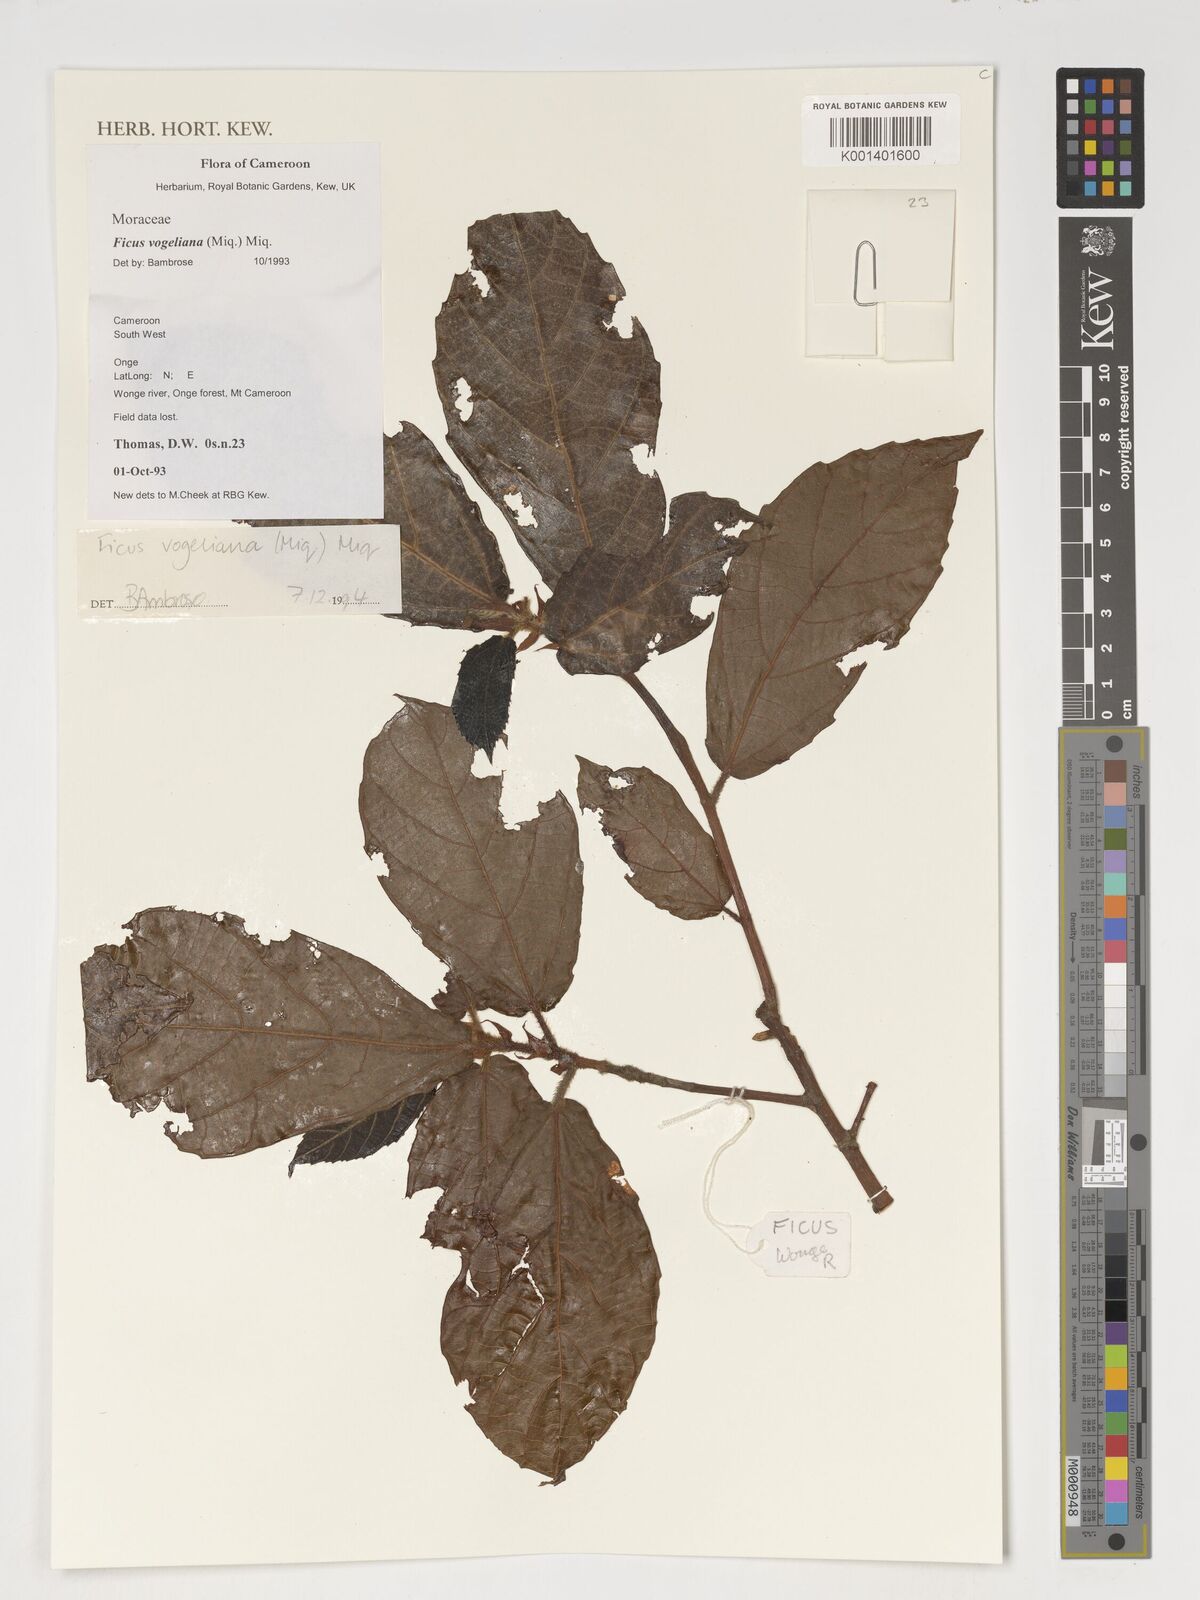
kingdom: Plantae
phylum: Tracheophyta
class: Magnoliopsida
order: Rosales
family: Moraceae
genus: Ficus
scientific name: Ficus vogeliana
